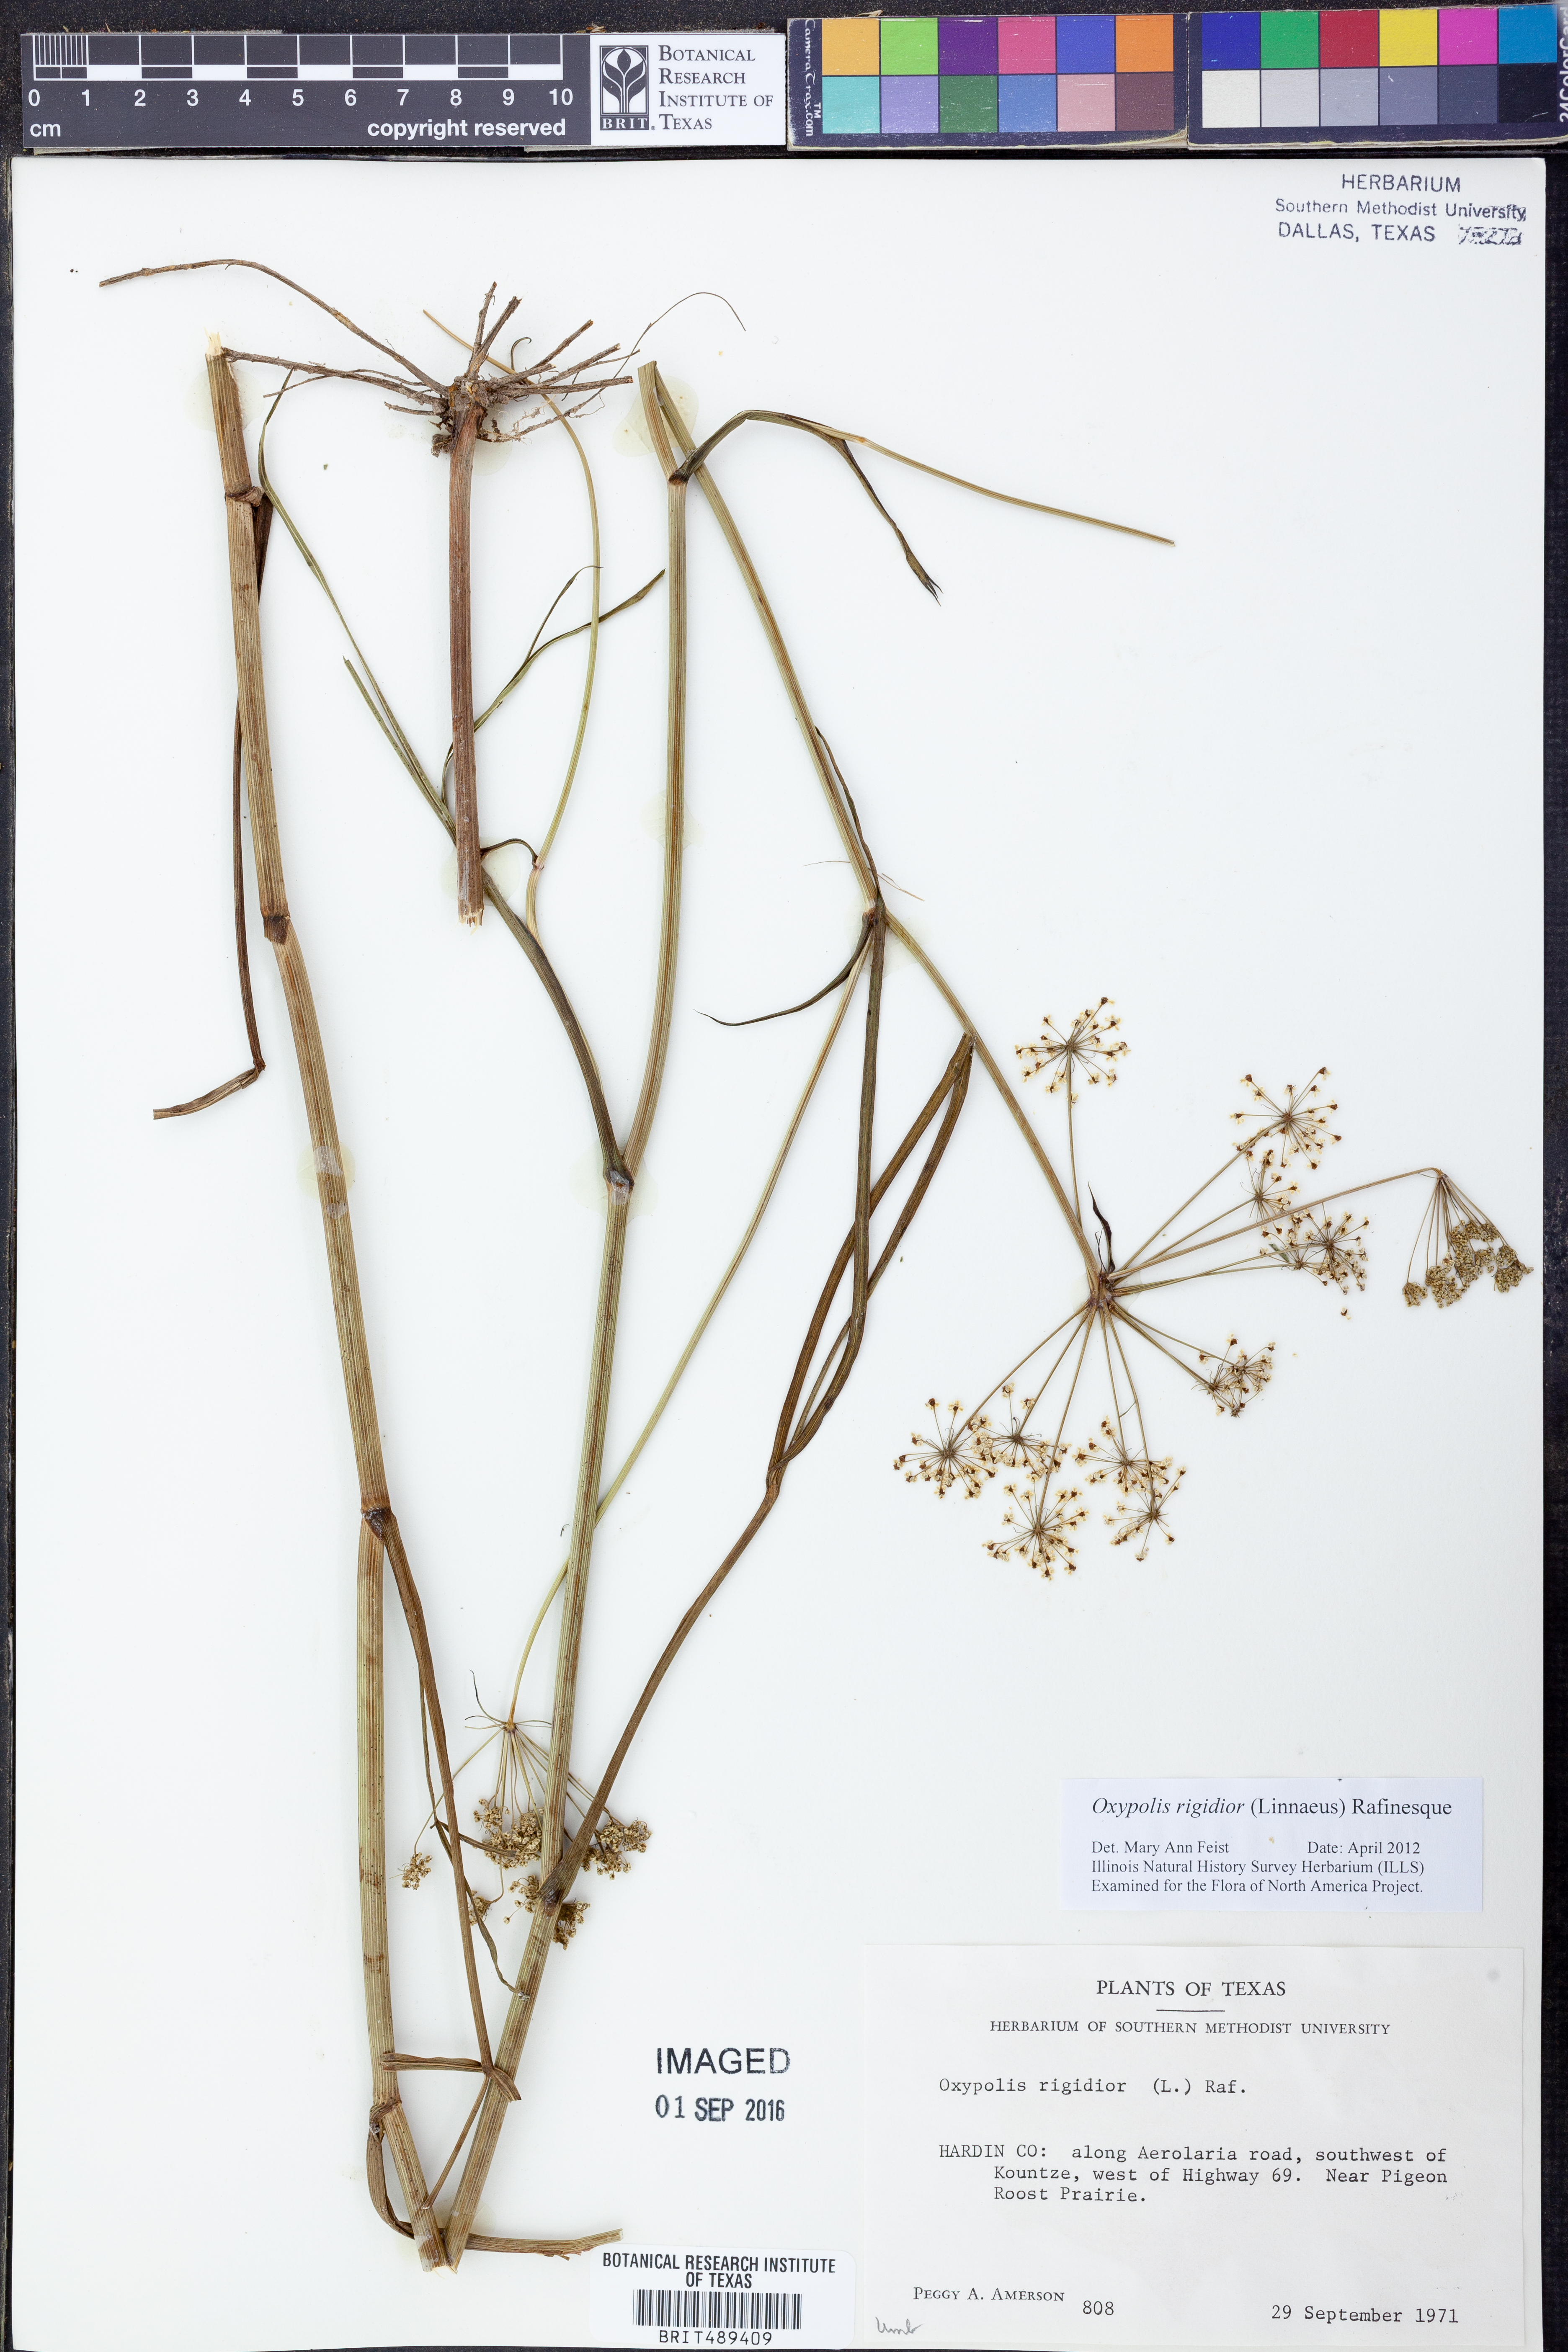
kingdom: Plantae
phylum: Tracheophyta
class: Magnoliopsida
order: Apiales
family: Apiaceae
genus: Oxypolis
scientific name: Oxypolis rigidior
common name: Cowbane
